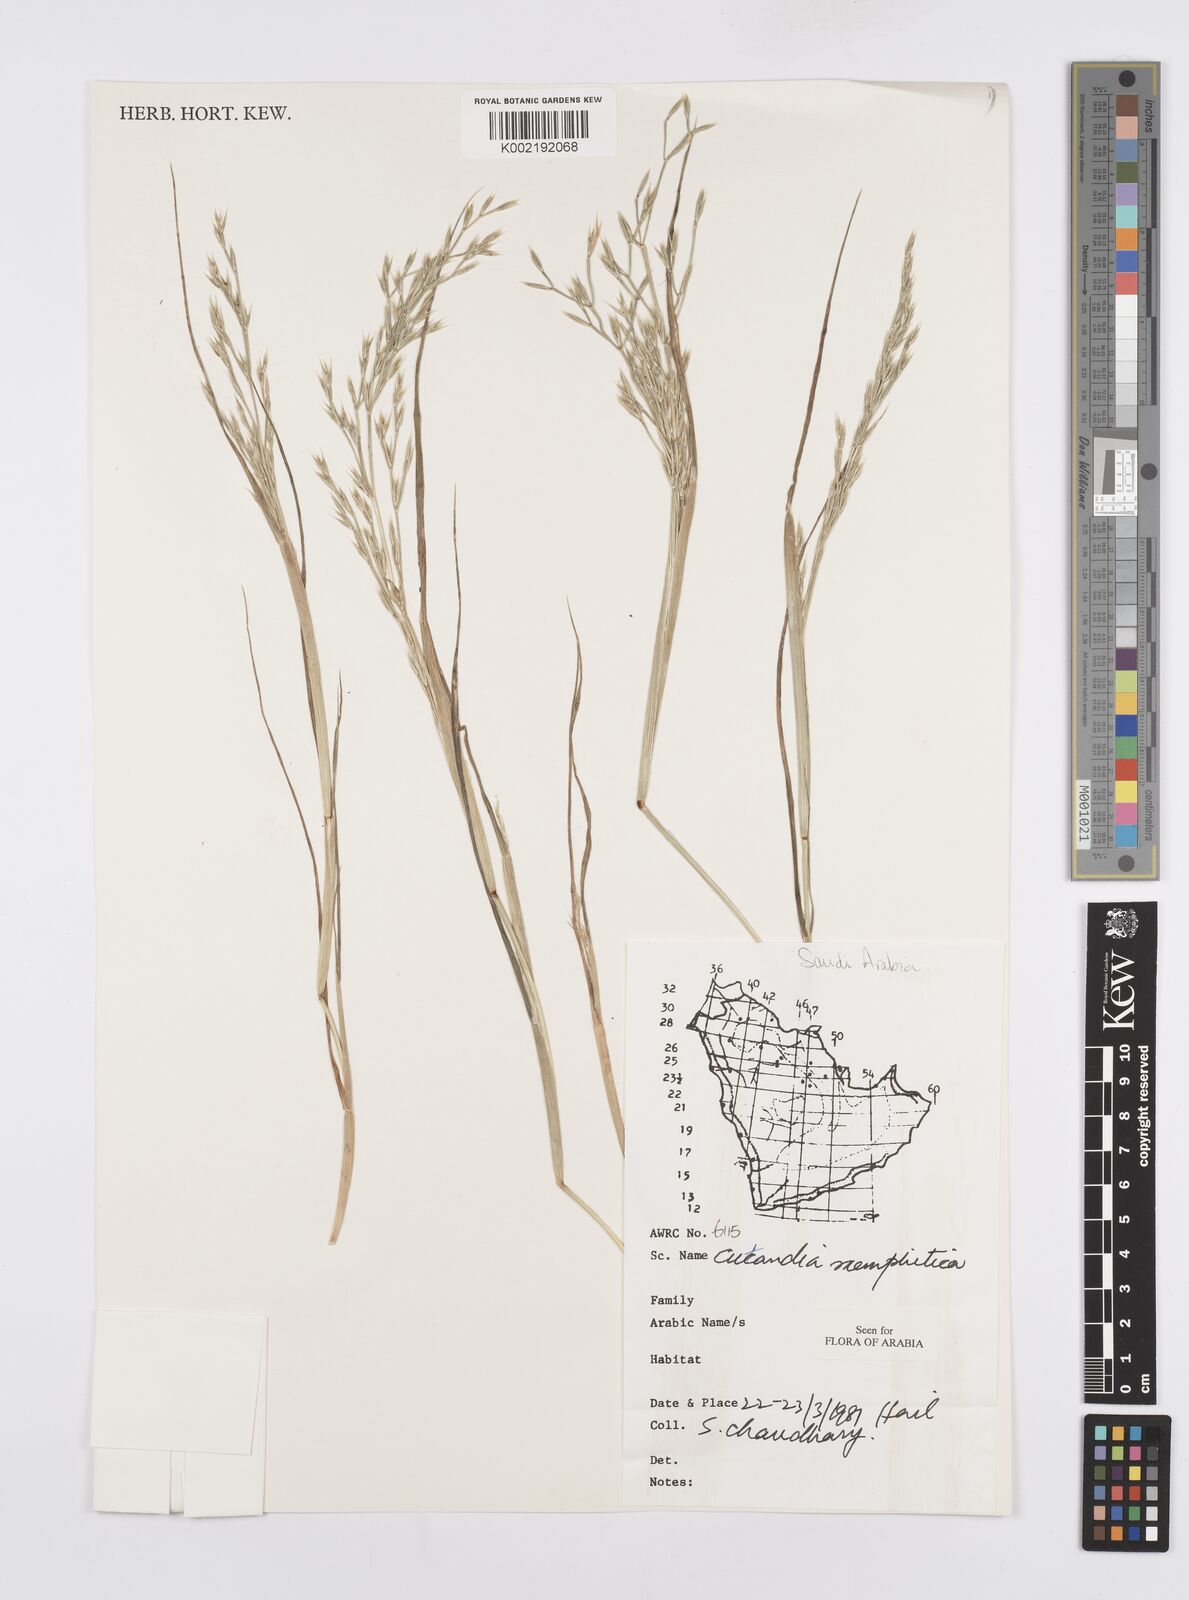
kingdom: Plantae
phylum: Tracheophyta
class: Liliopsida
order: Poales
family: Poaceae
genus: Cutandia
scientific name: Cutandia memphitica
